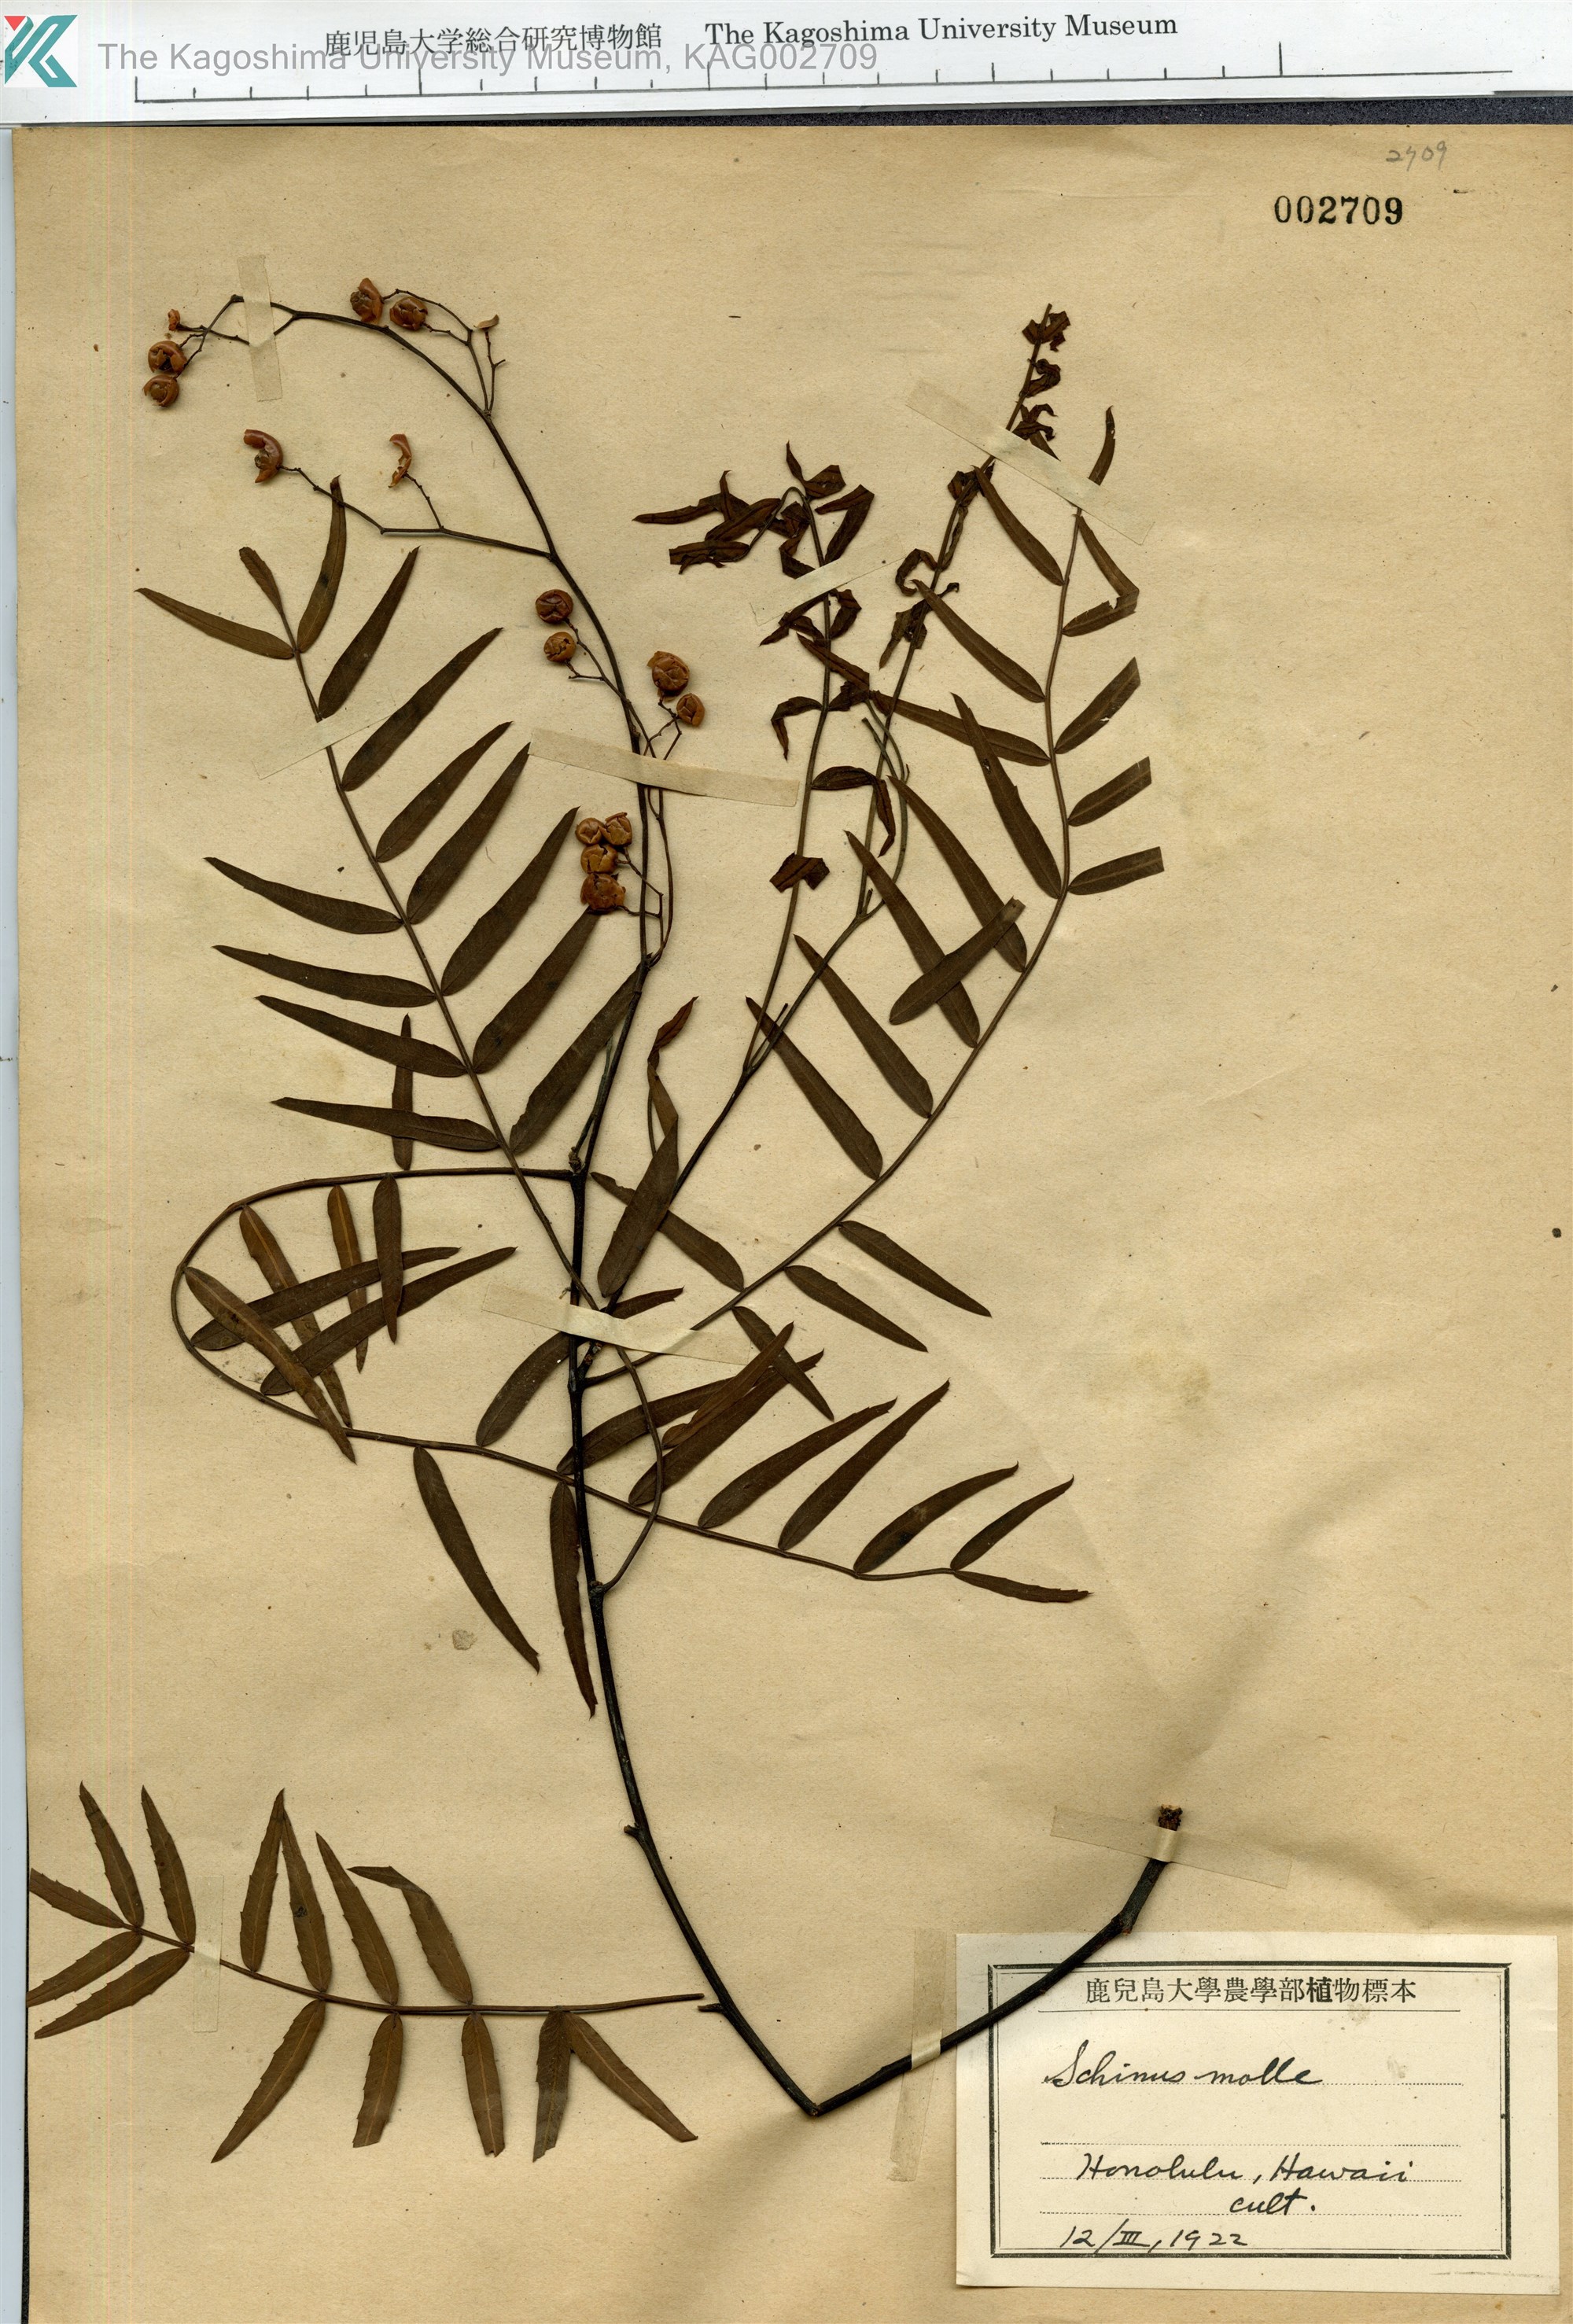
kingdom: Plantae
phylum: Tracheophyta
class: Magnoliopsida
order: Sapindales
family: Anacardiaceae
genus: Schinus
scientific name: Schinus molle
